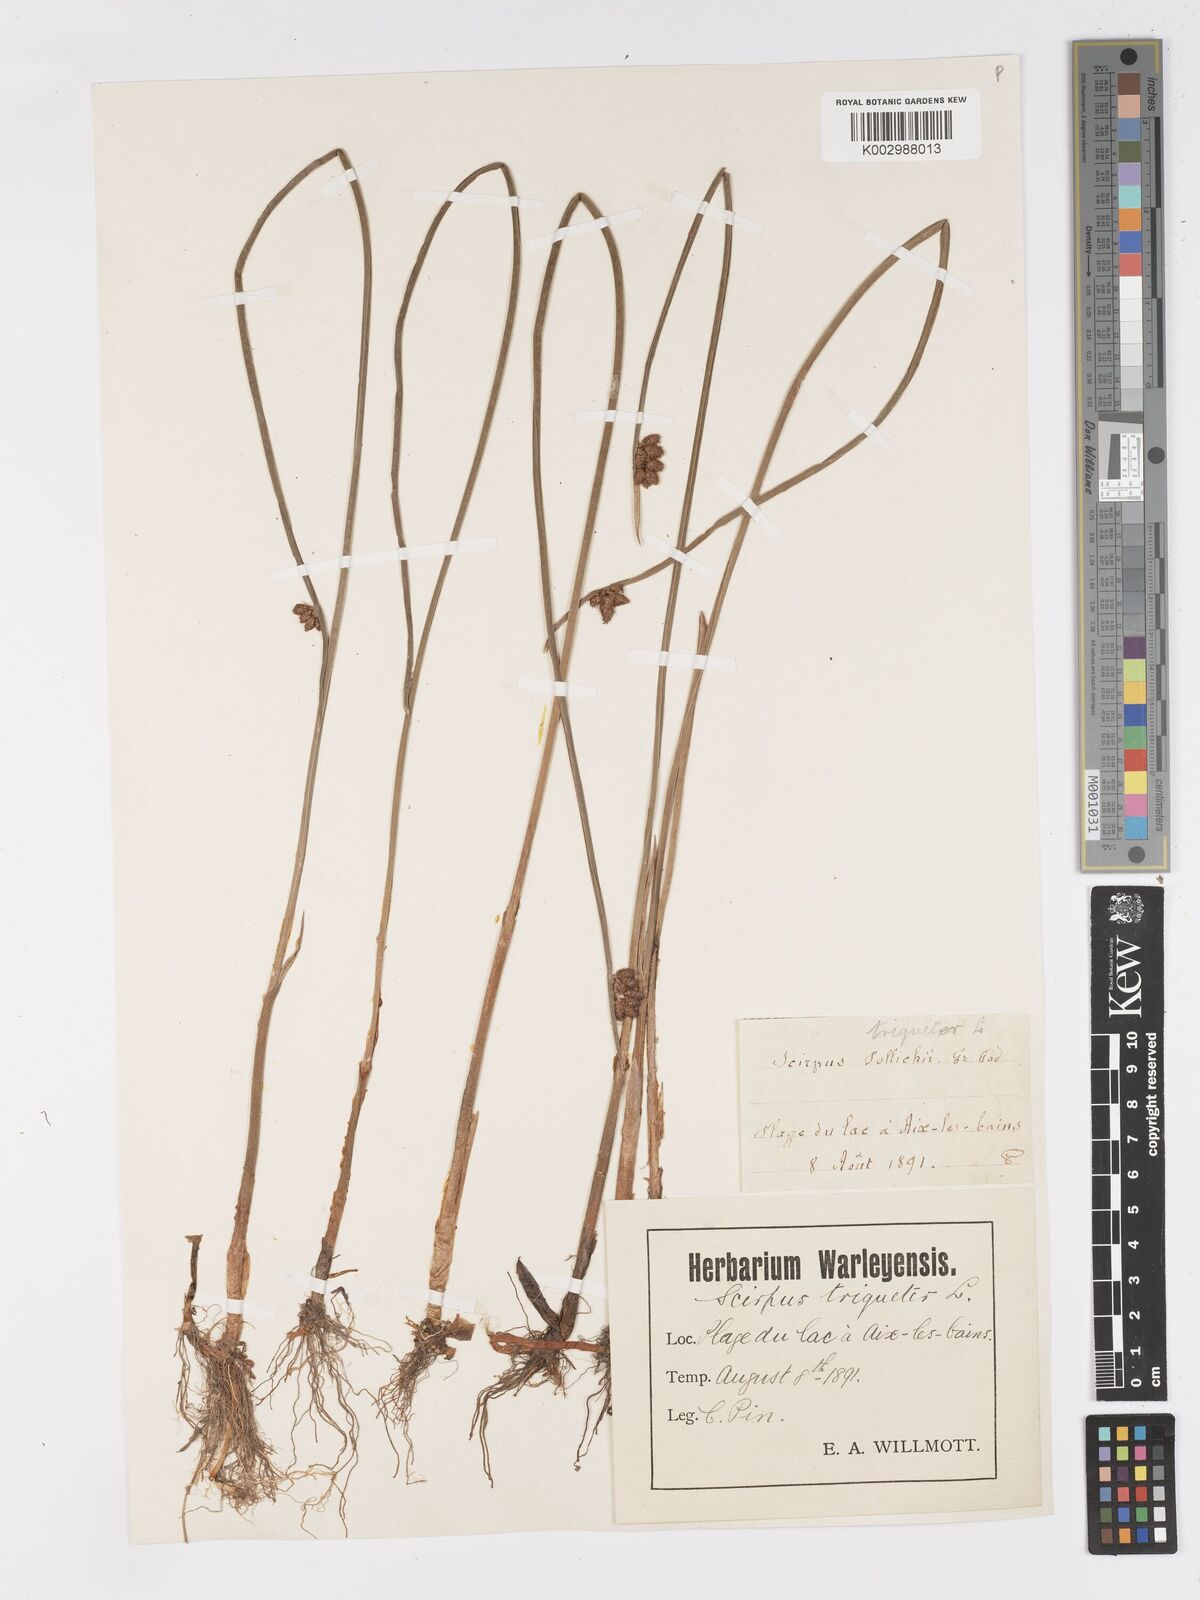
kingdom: Plantae
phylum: Tracheophyta
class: Liliopsida
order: Poales
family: Cyperaceae
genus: Schoenoplectus
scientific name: Schoenoplectus triqueter
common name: Triangular club-rush
